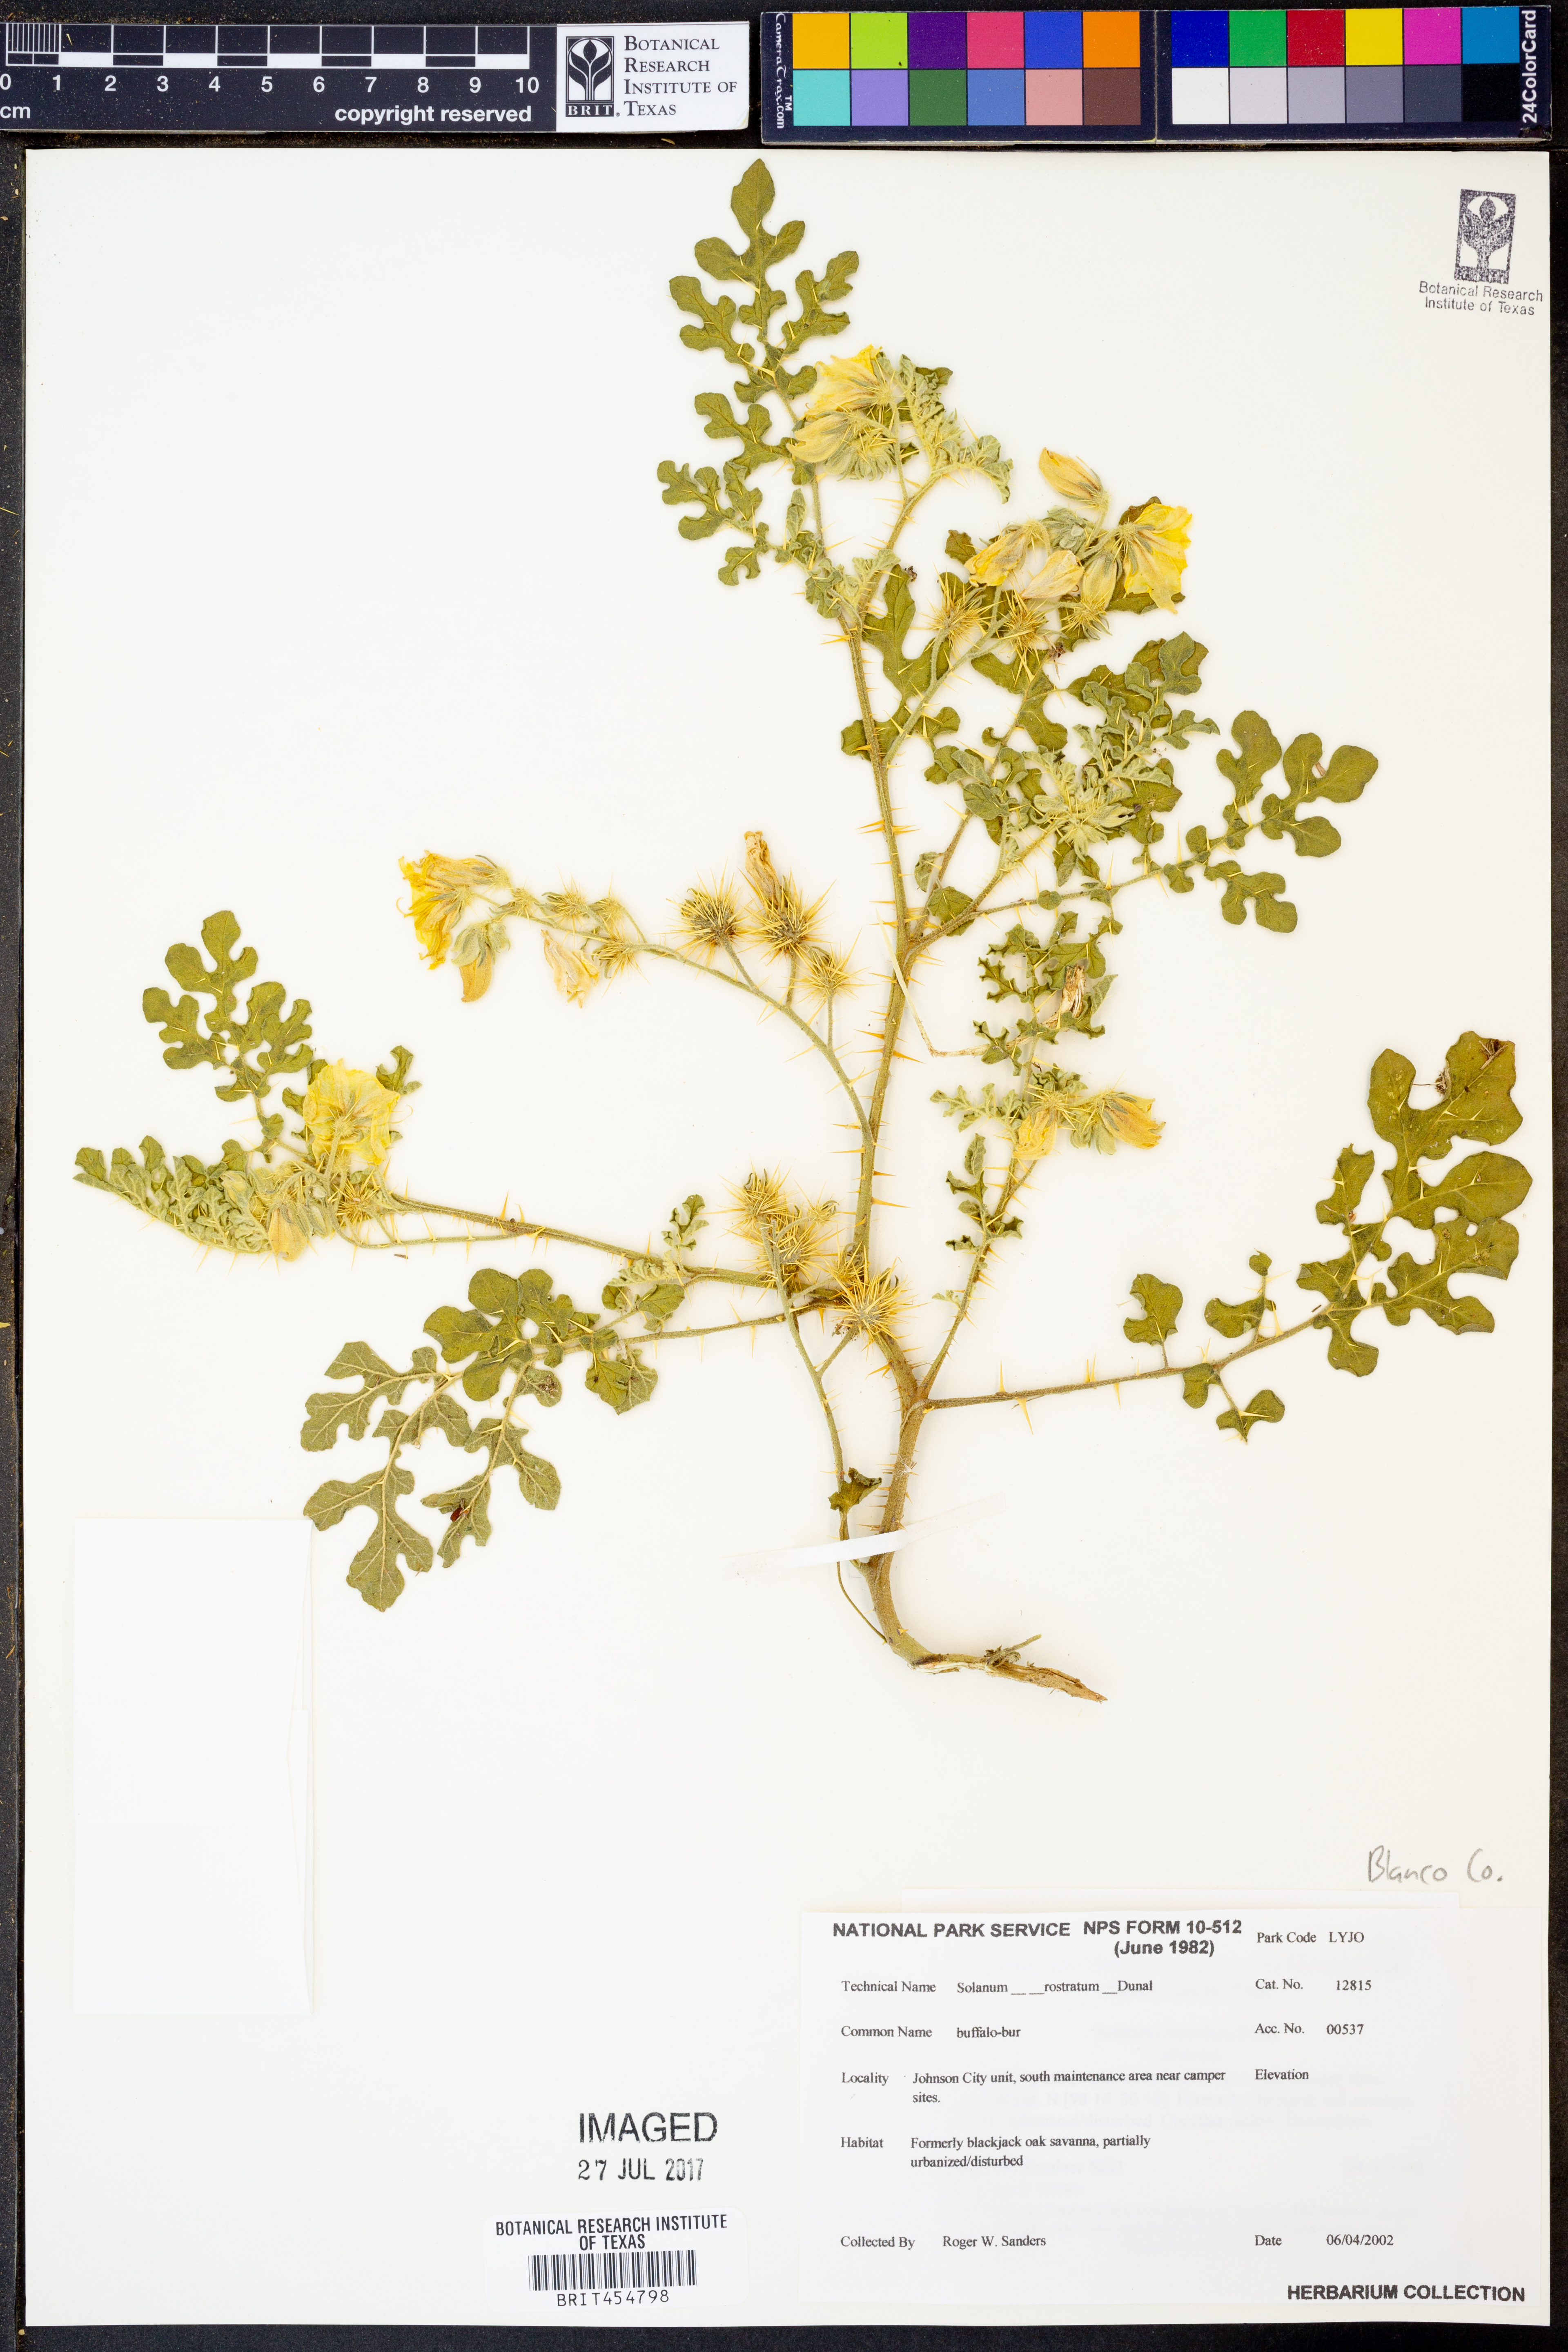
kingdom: Plantae
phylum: Tracheophyta
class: Magnoliopsida
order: Solanales
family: Solanaceae
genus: Solanum
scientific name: Solanum angustifolium
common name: Buffalobur nightshade
